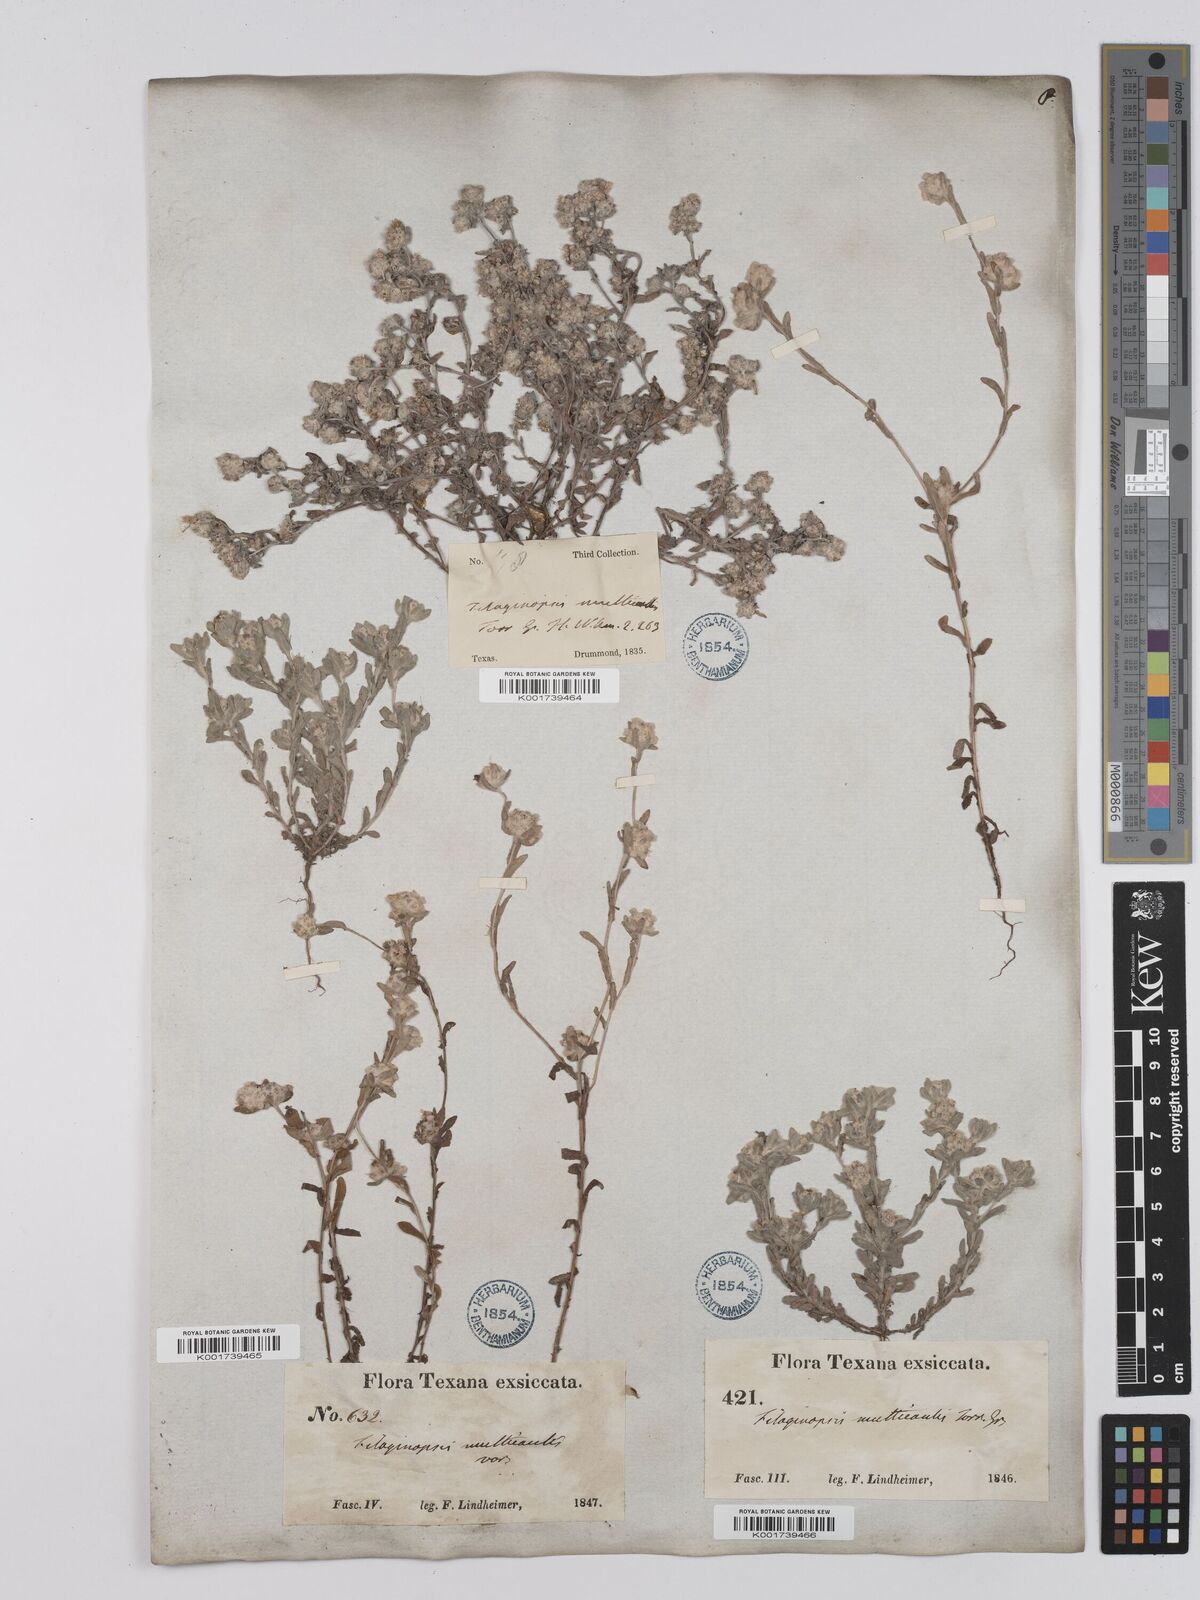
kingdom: Plantae
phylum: Tracheophyta
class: Magnoliopsida
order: Asterales
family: Asteraceae
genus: Filago
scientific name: Filago
